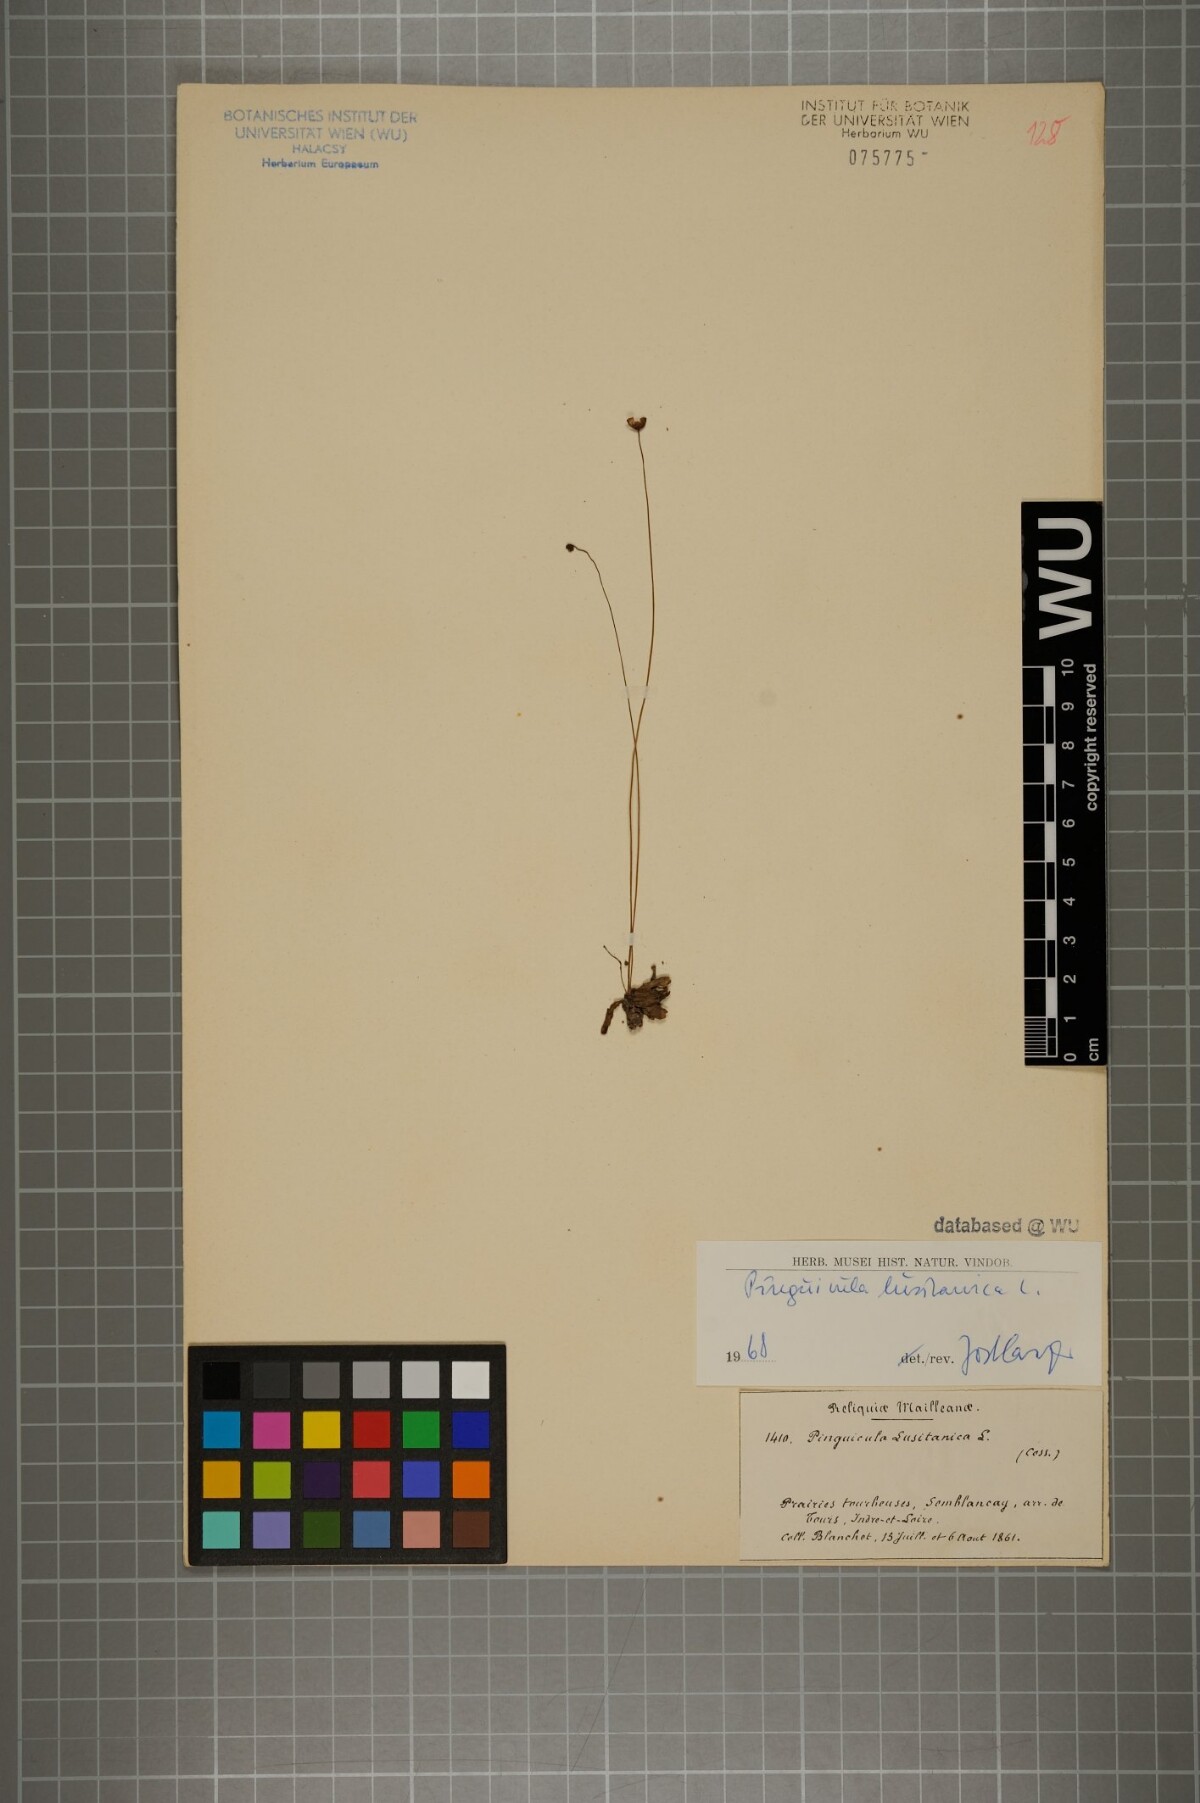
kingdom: Plantae
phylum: Tracheophyta
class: Magnoliopsida
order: Lamiales
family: Lentibulariaceae
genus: Pinguicula
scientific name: Pinguicula lusitanica
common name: Pale butterwort
